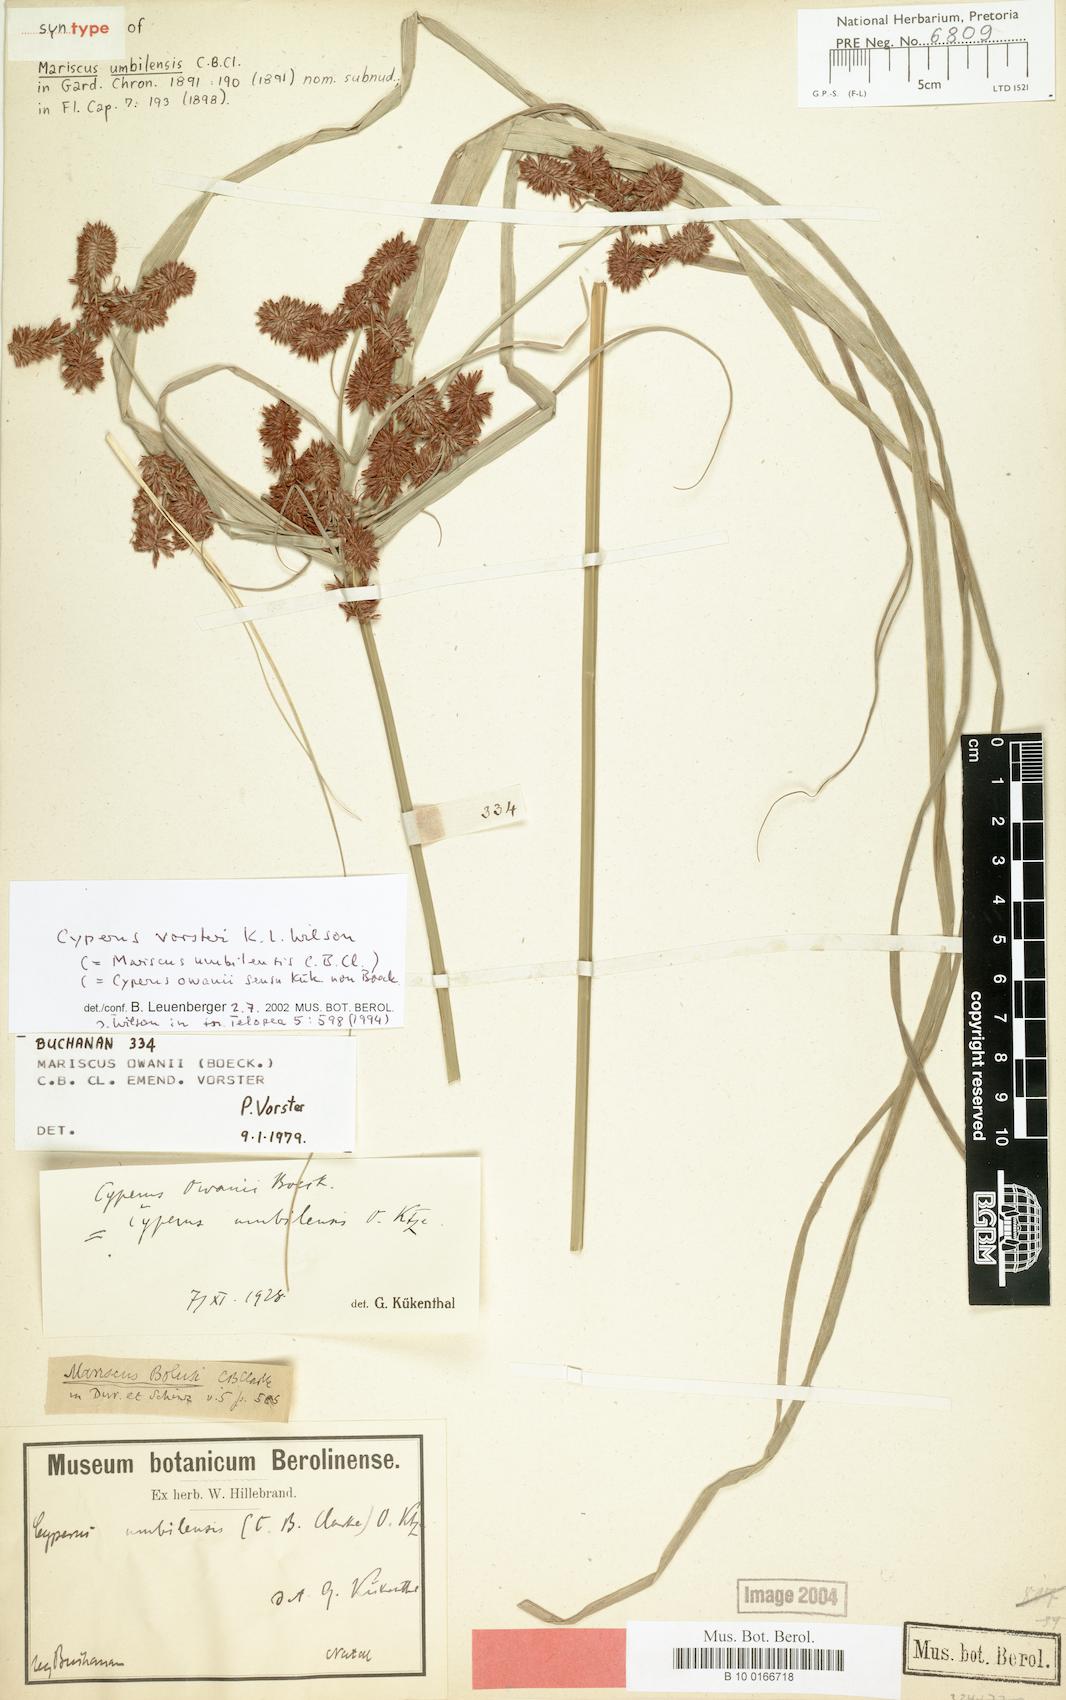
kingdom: Plantae
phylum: Tracheophyta
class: Liliopsida
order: Poales
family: Cyperaceae
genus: Cyperus
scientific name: Cyperus vorsteri
